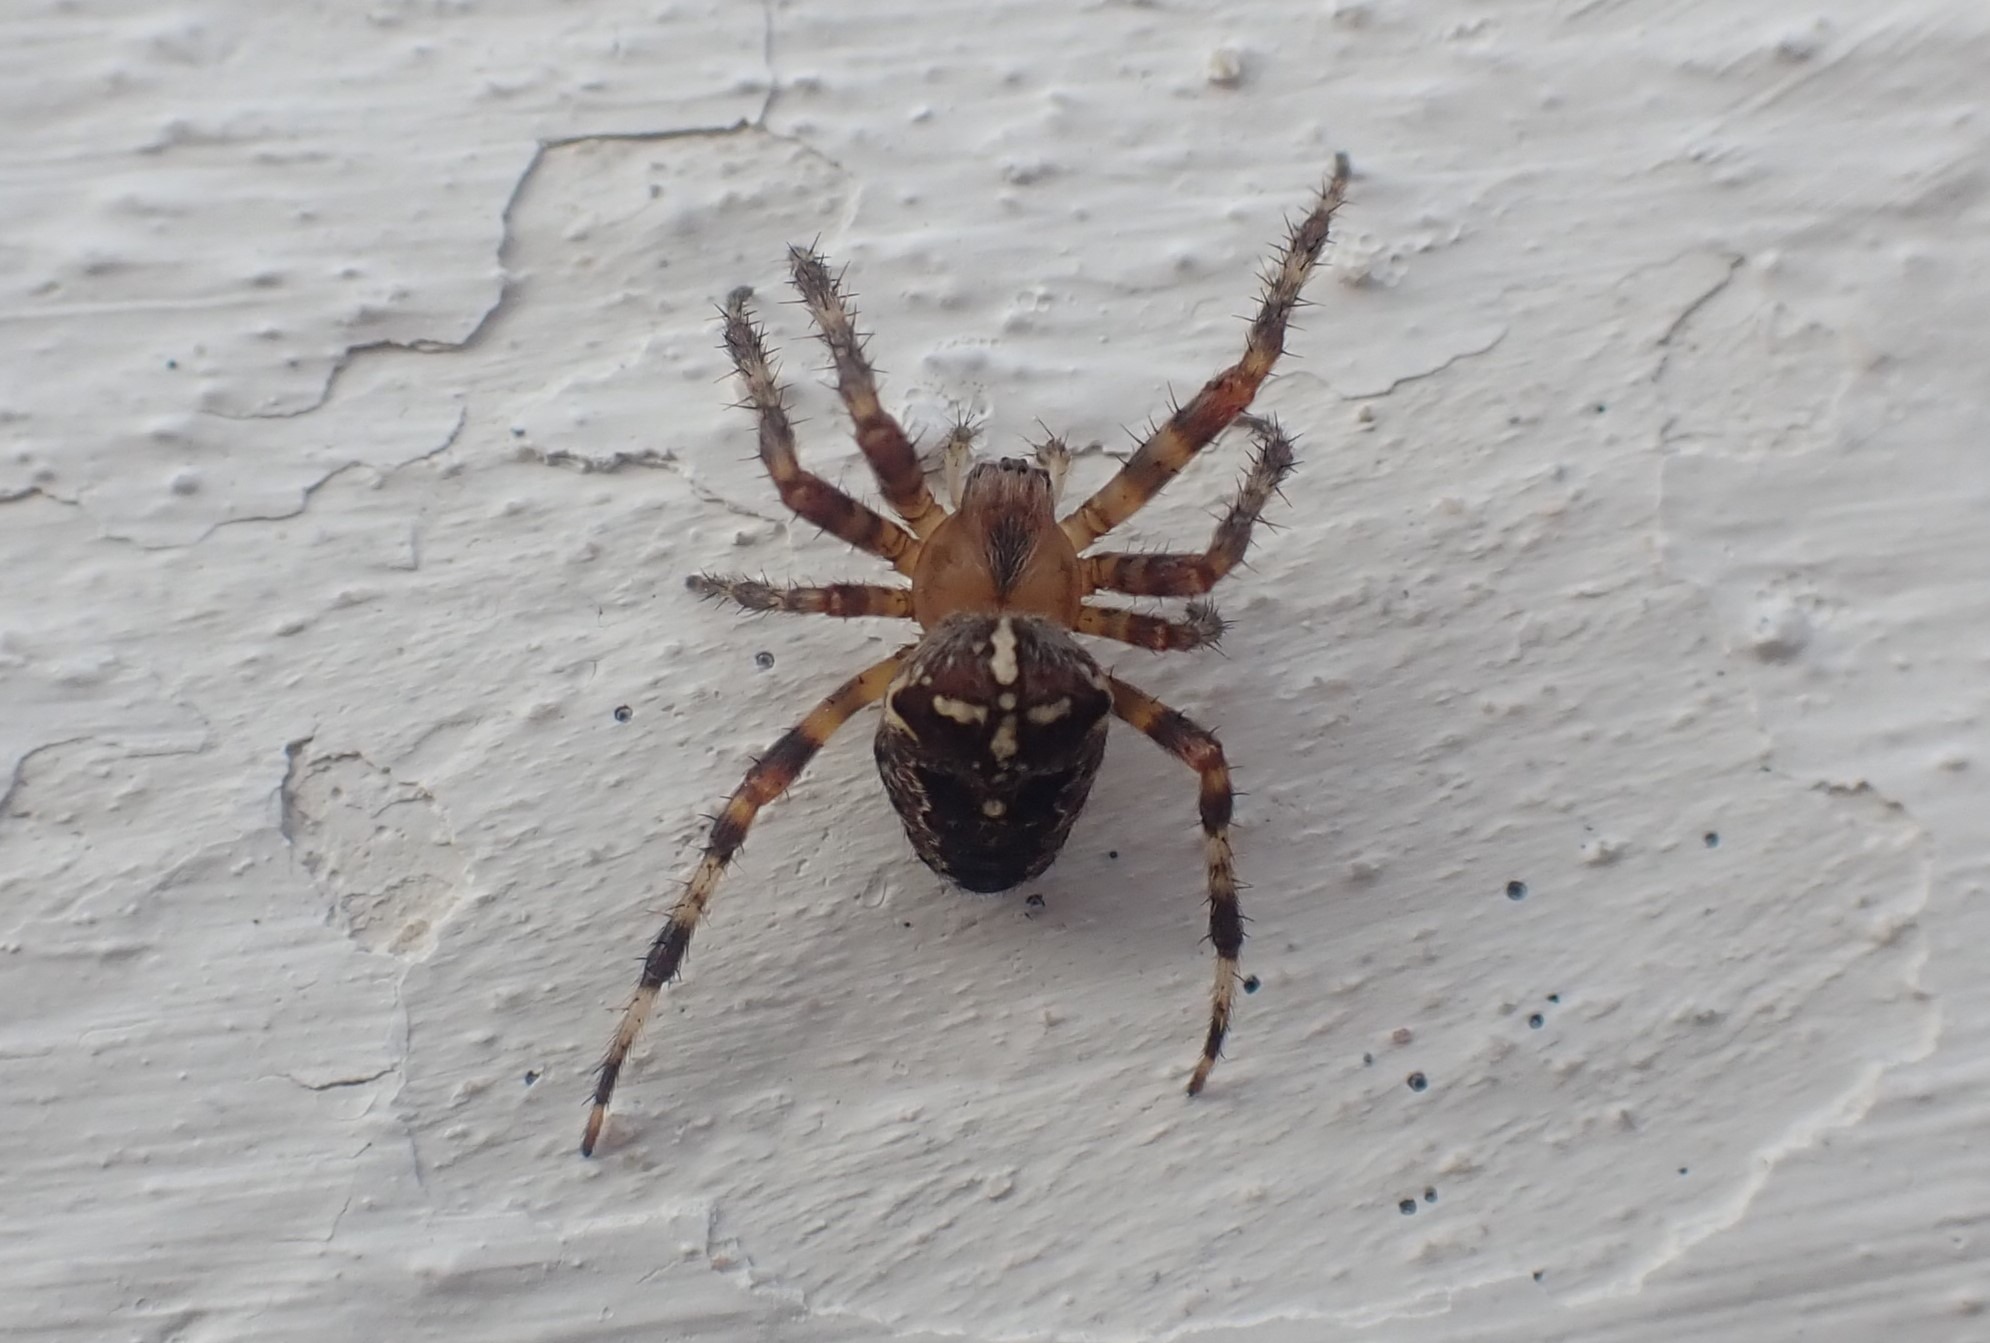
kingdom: Animalia
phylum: Arthropoda
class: Arachnida
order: Araneae
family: Araneidae
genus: Araneus
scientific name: Araneus diadematus
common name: Korsedderkop
